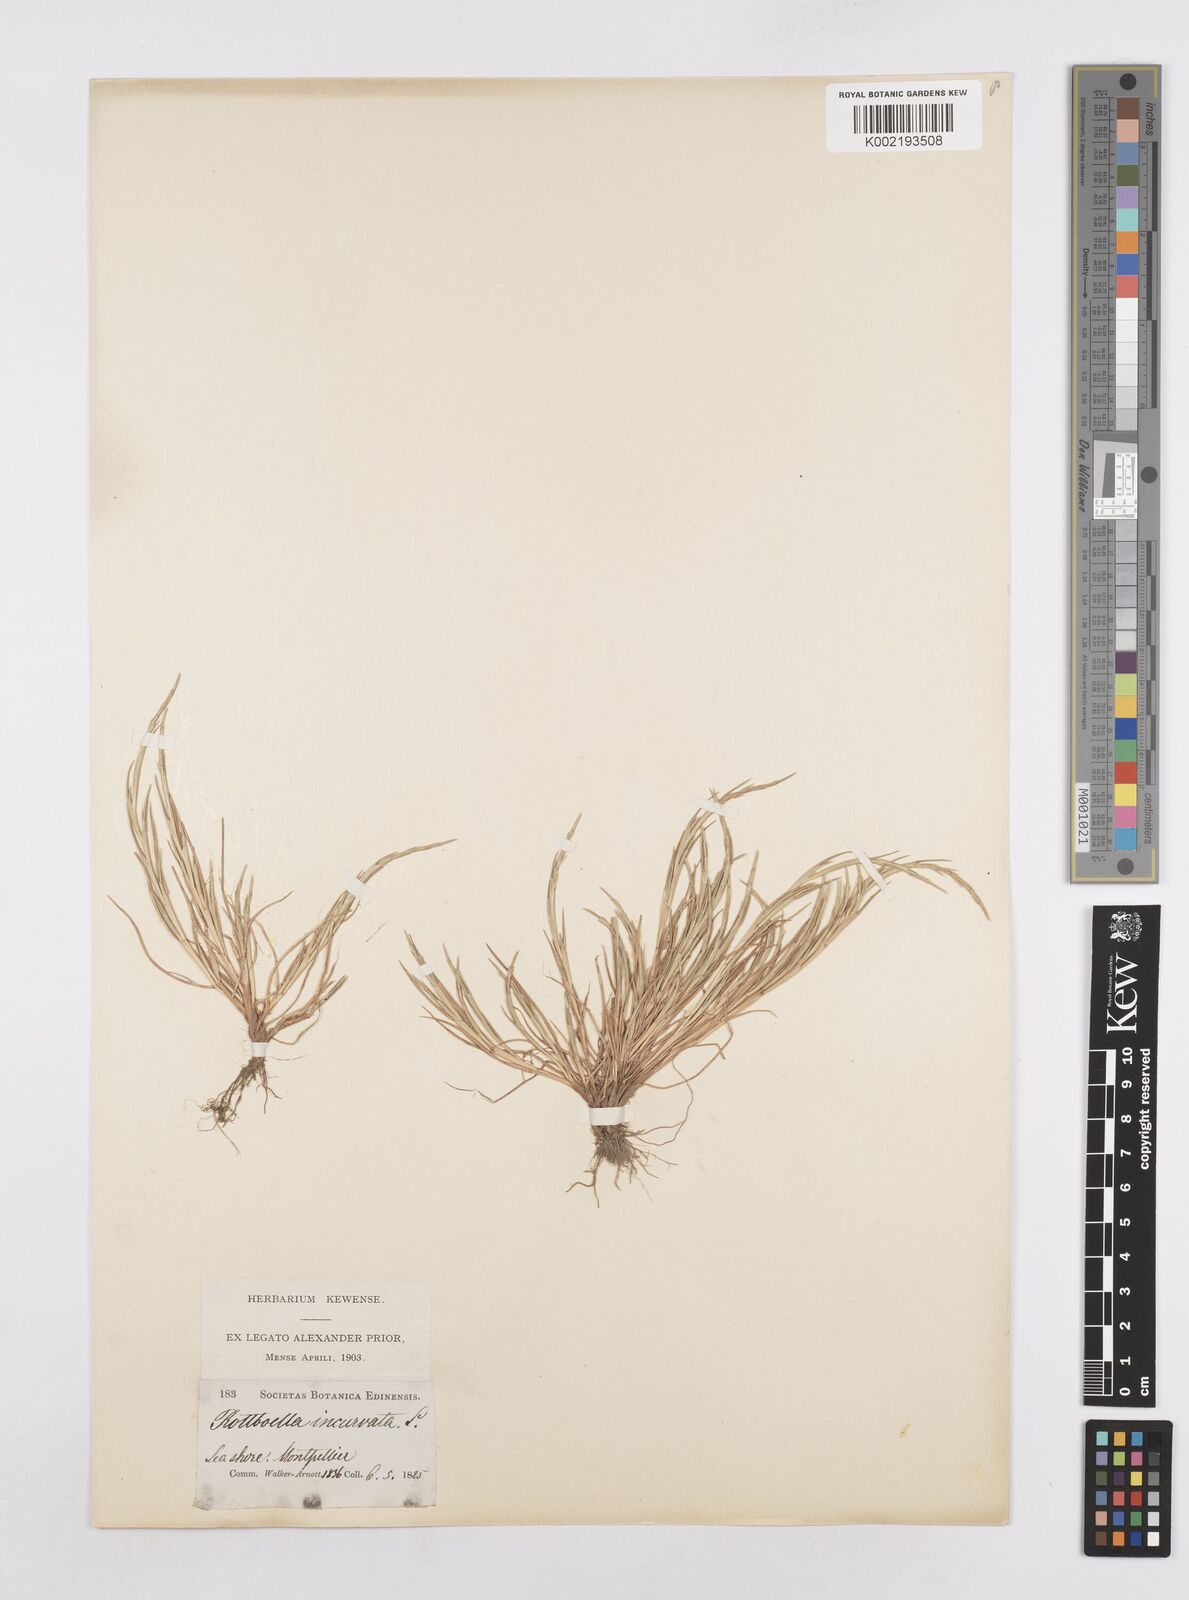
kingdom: Plantae
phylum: Tracheophyta
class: Liliopsida
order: Poales
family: Poaceae
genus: Parapholis
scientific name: Parapholis incurva
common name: Curved sicklegrass
